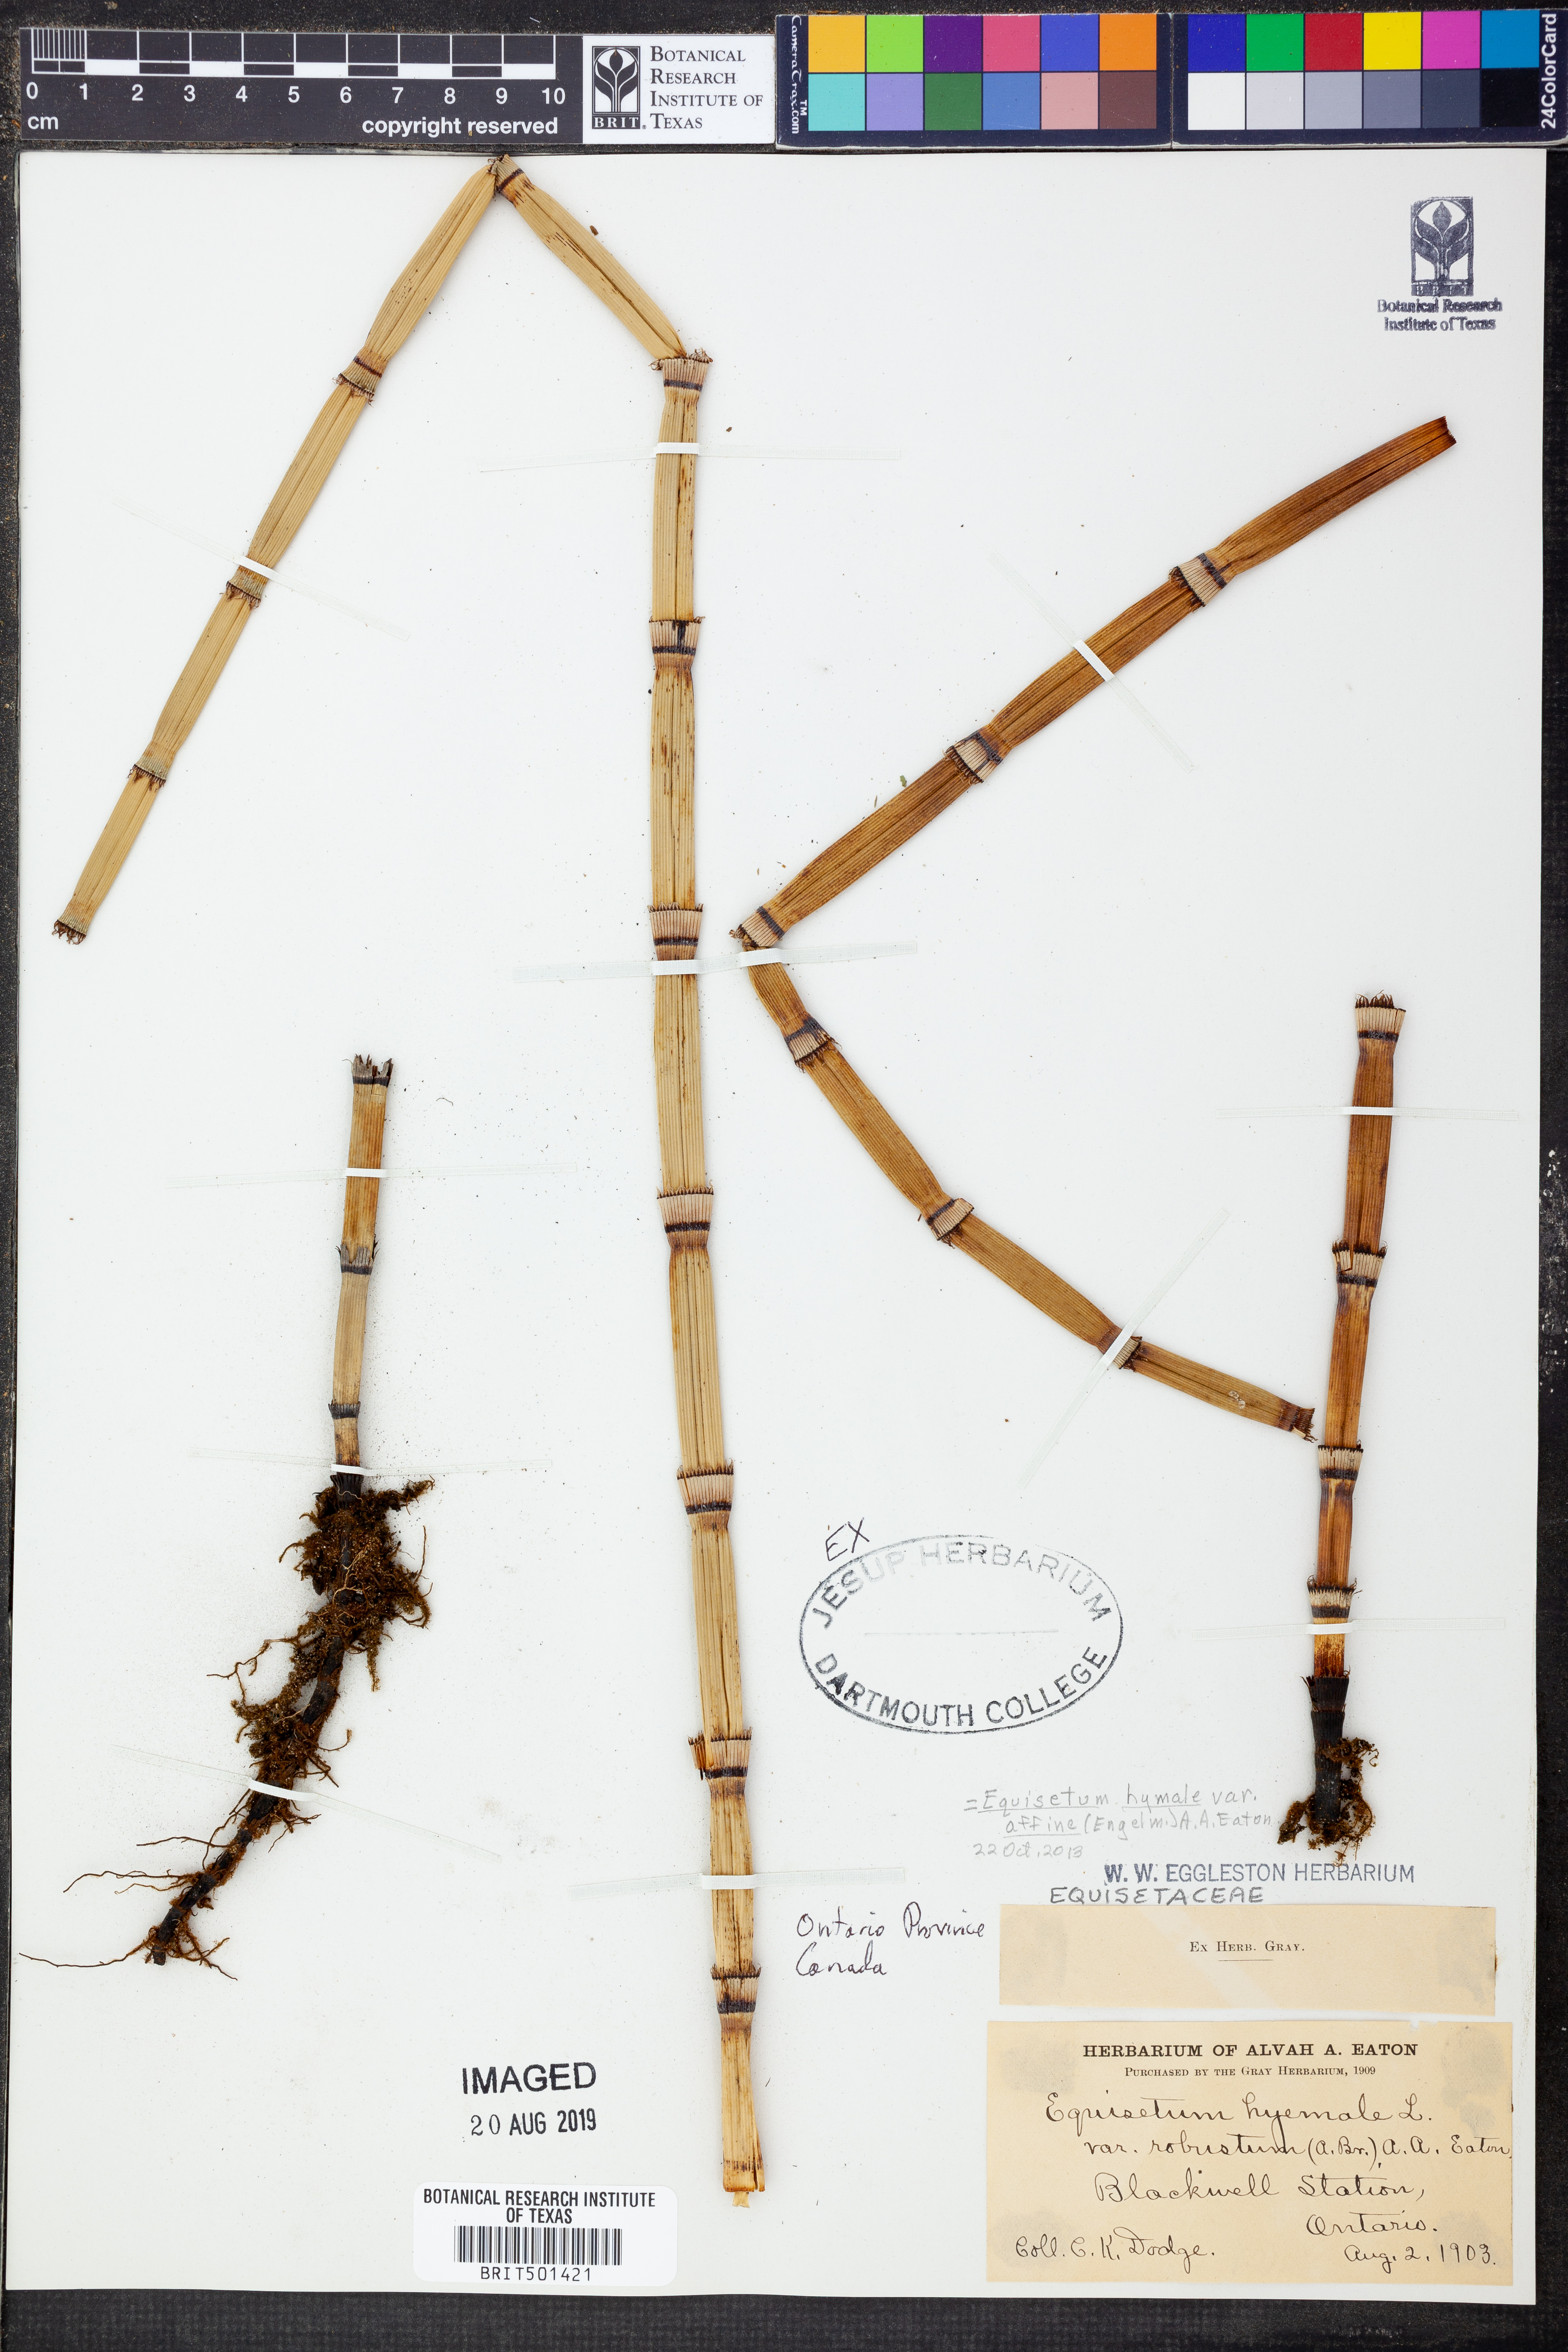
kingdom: Plantae
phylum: Tracheophyta
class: Polypodiopsida
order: Equisetales
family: Equisetaceae
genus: Equisetum
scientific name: Equisetum praealtum
